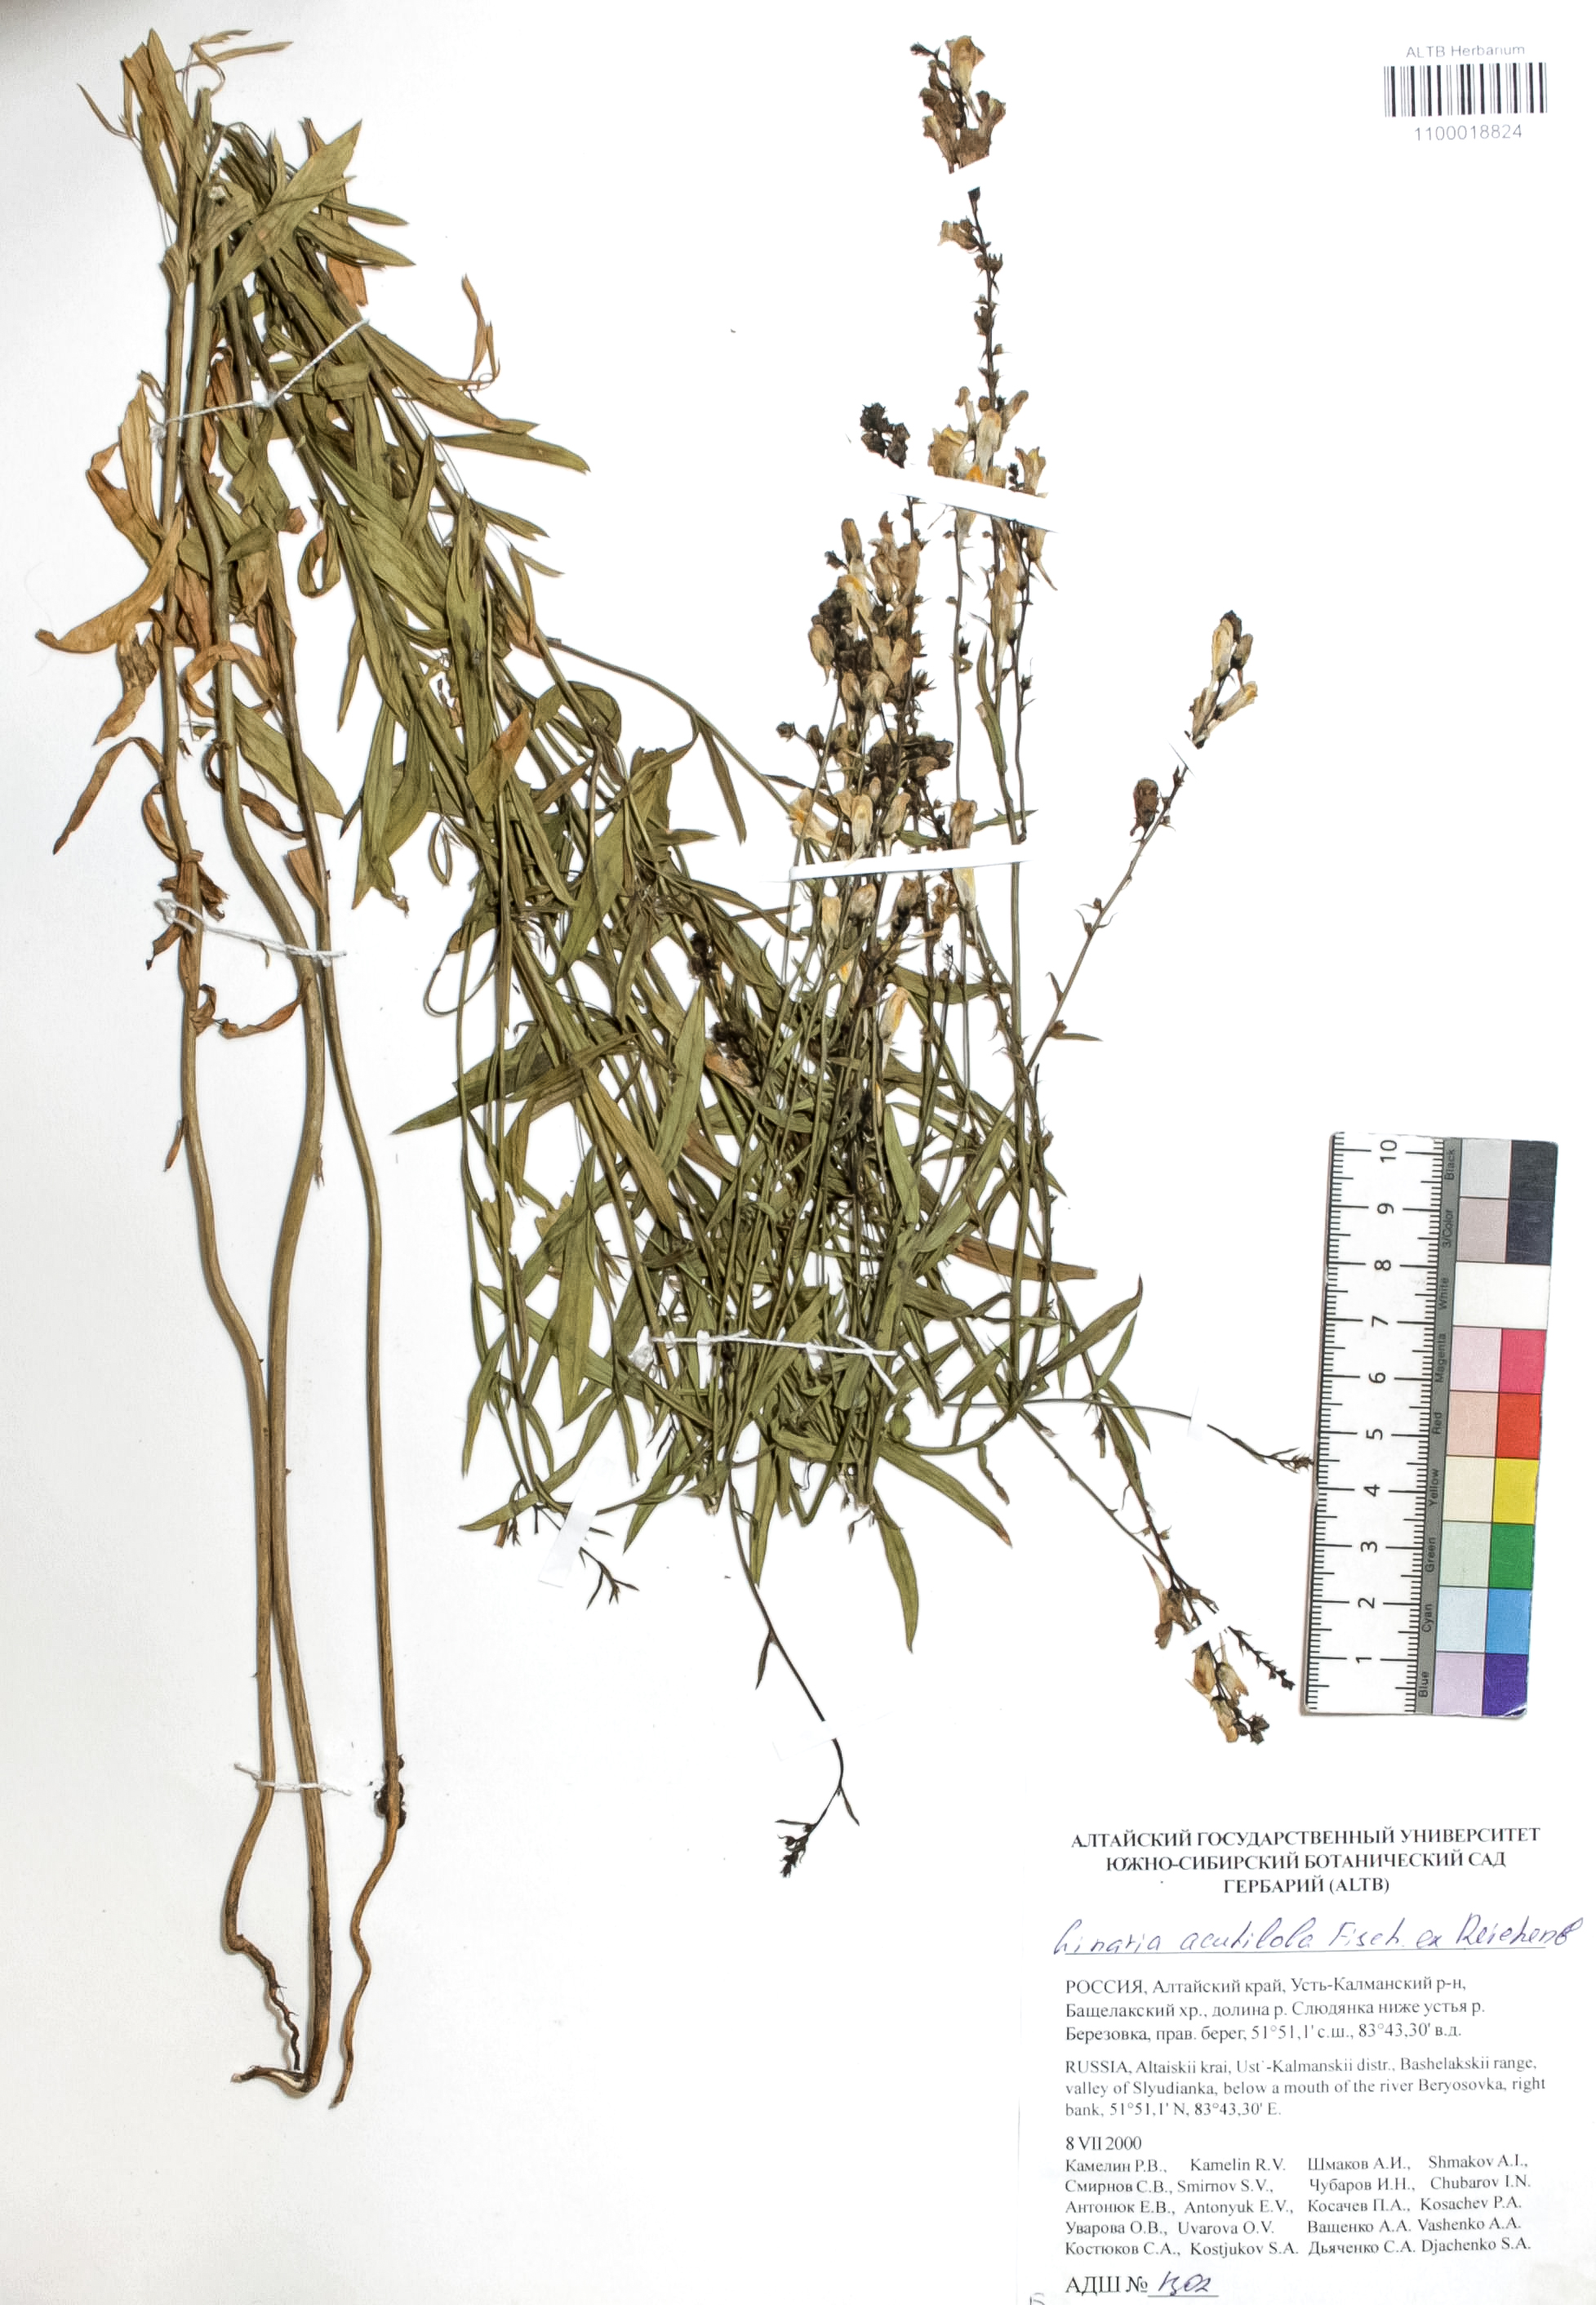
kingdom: Plantae
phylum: Tracheophyta
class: Magnoliopsida
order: Lamiales
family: Plantaginaceae
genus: Linaria
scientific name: Linaria acutiloba
